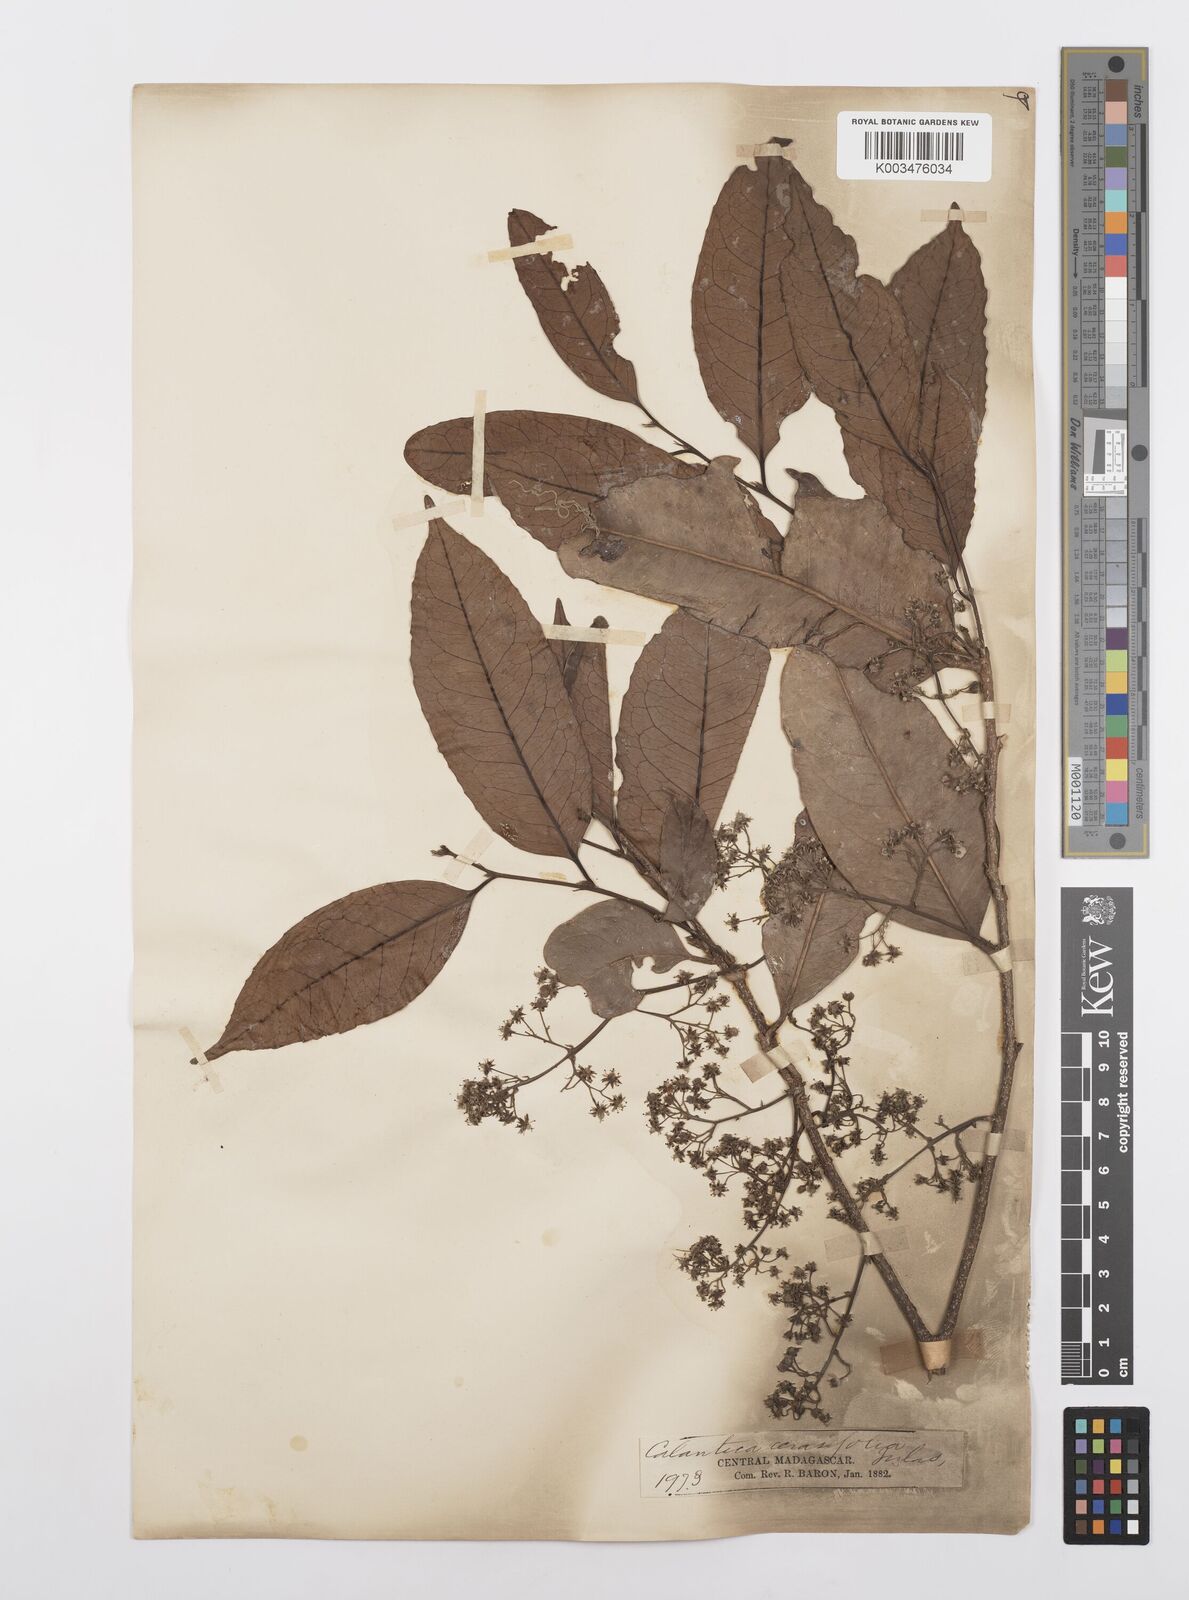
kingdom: Plantae
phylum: Tracheophyta
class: Magnoliopsida
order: Malpighiales
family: Salicaceae
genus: Calantica
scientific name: Calantica cerasifolia
